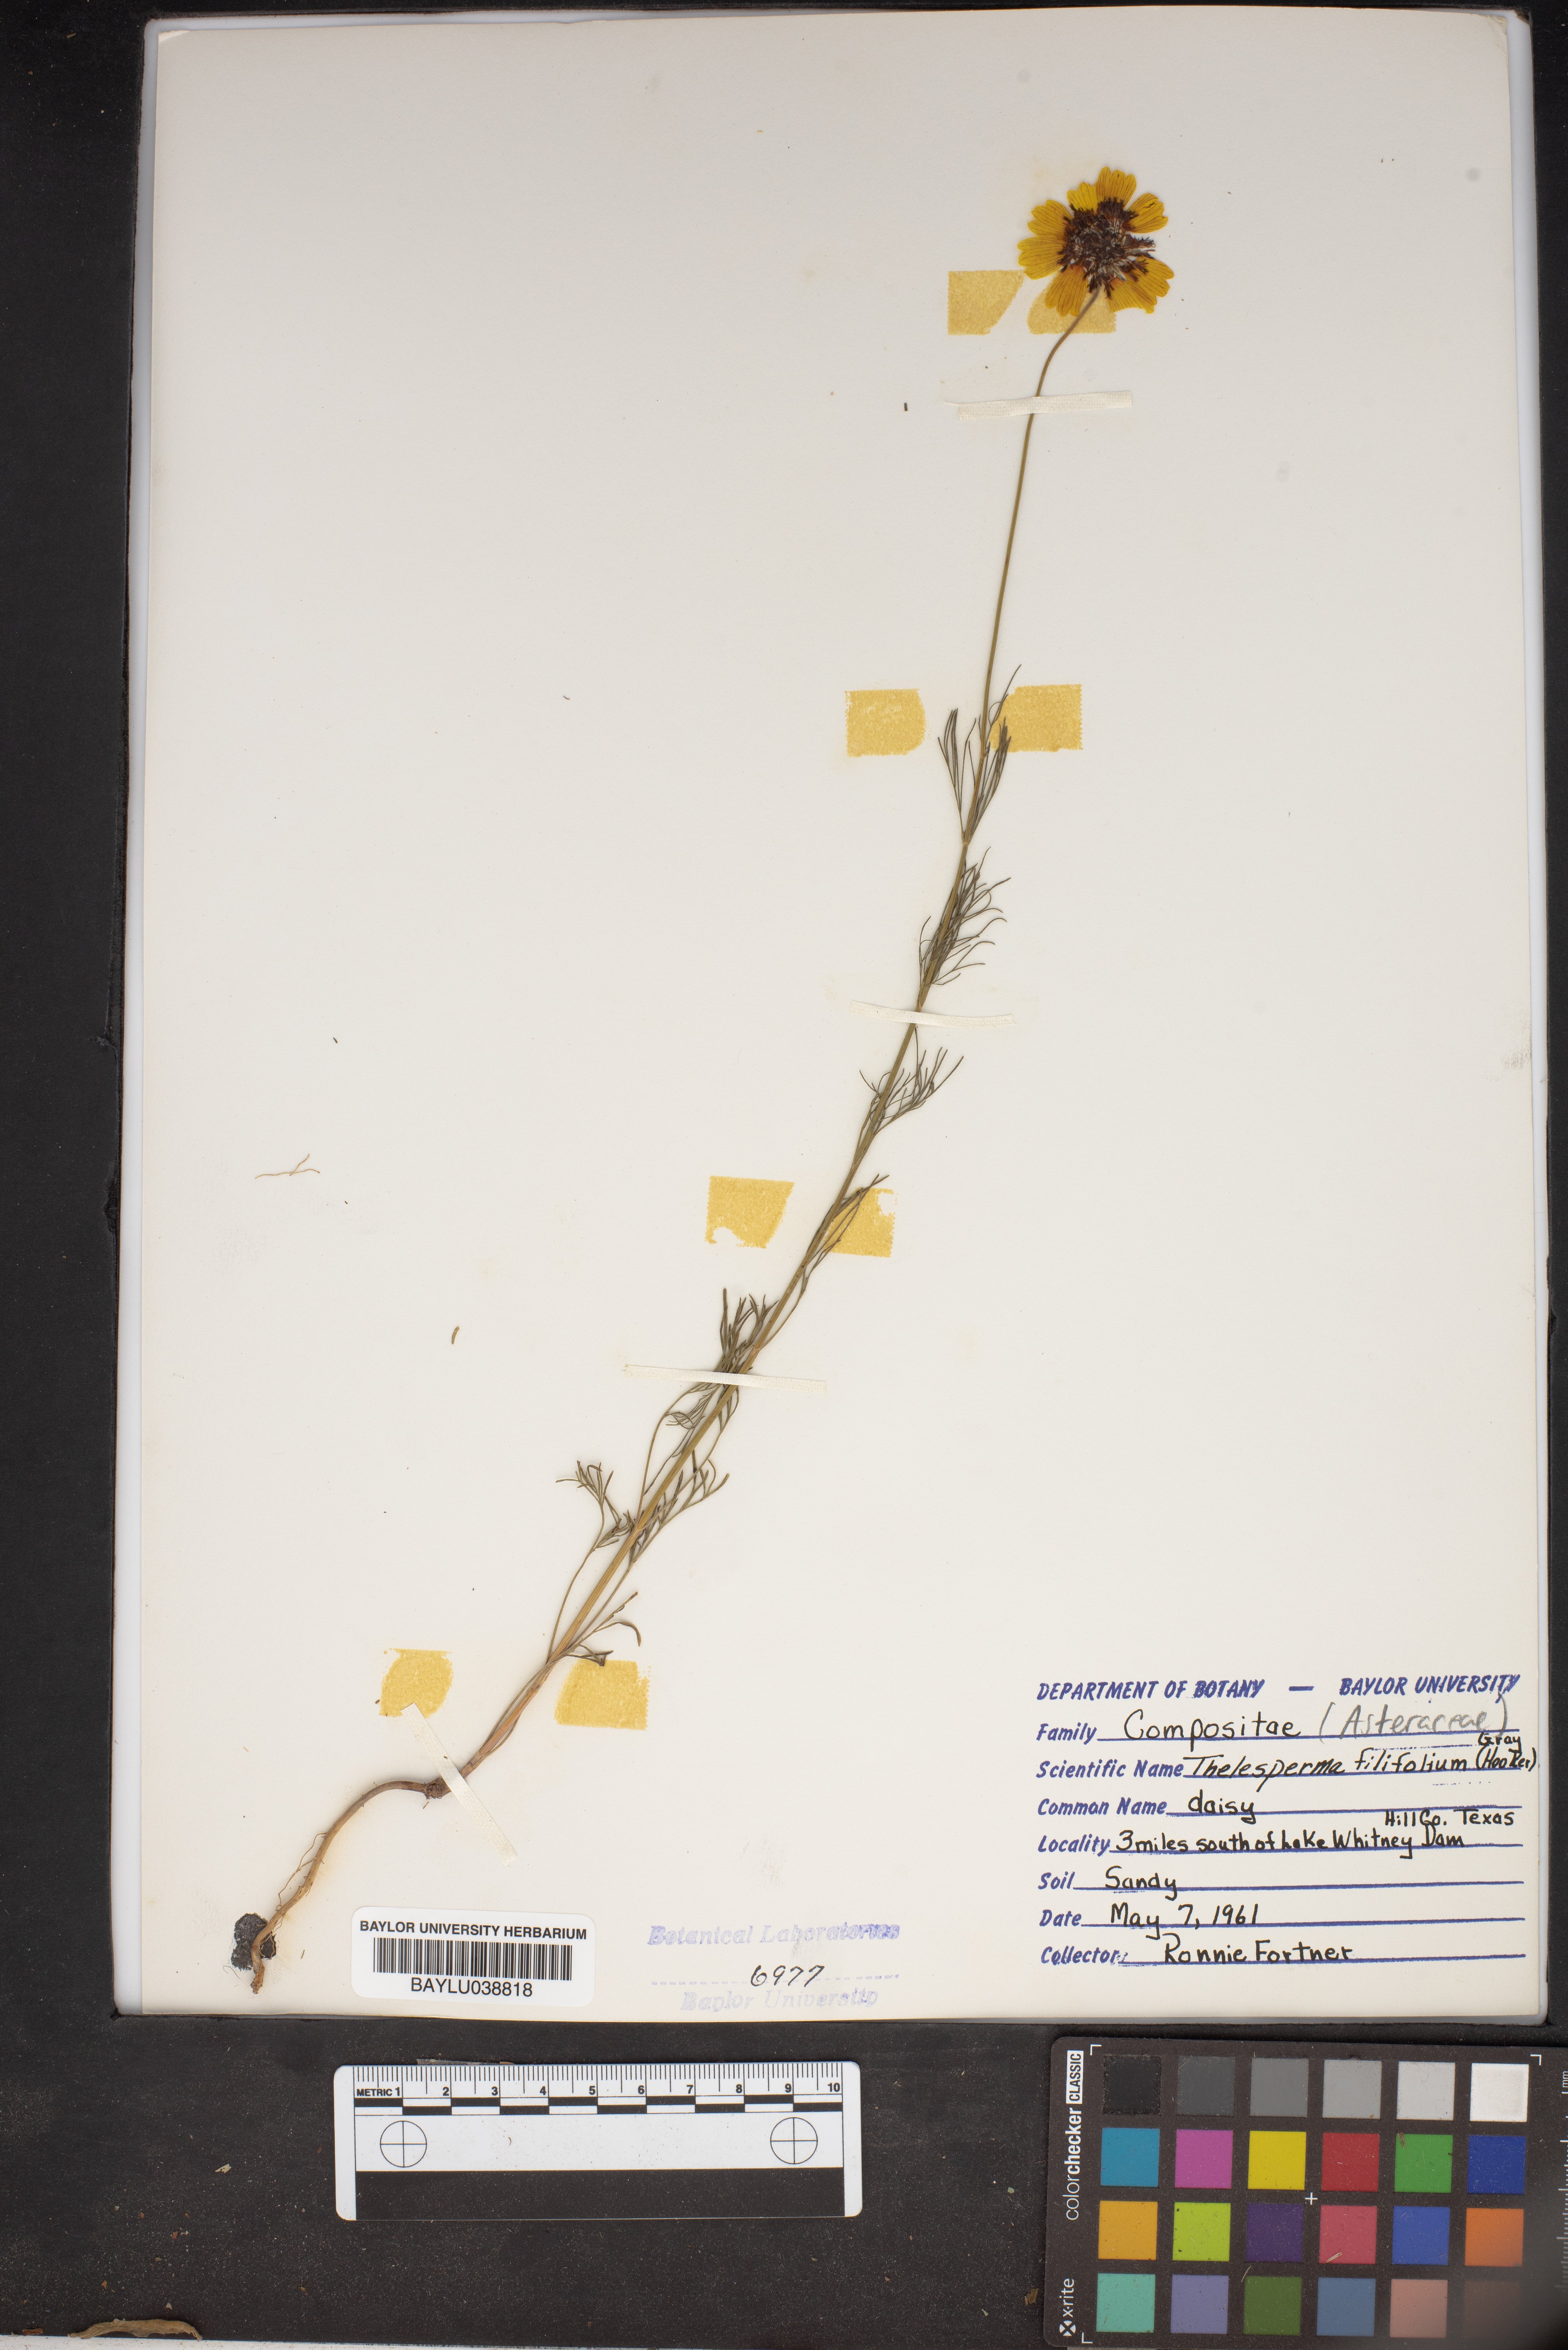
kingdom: Plantae
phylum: Tracheophyta
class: Magnoliopsida
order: Asterales
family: Asteraceae
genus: Thelesperma
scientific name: Thelesperma filifolium
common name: Stiff greenthread
